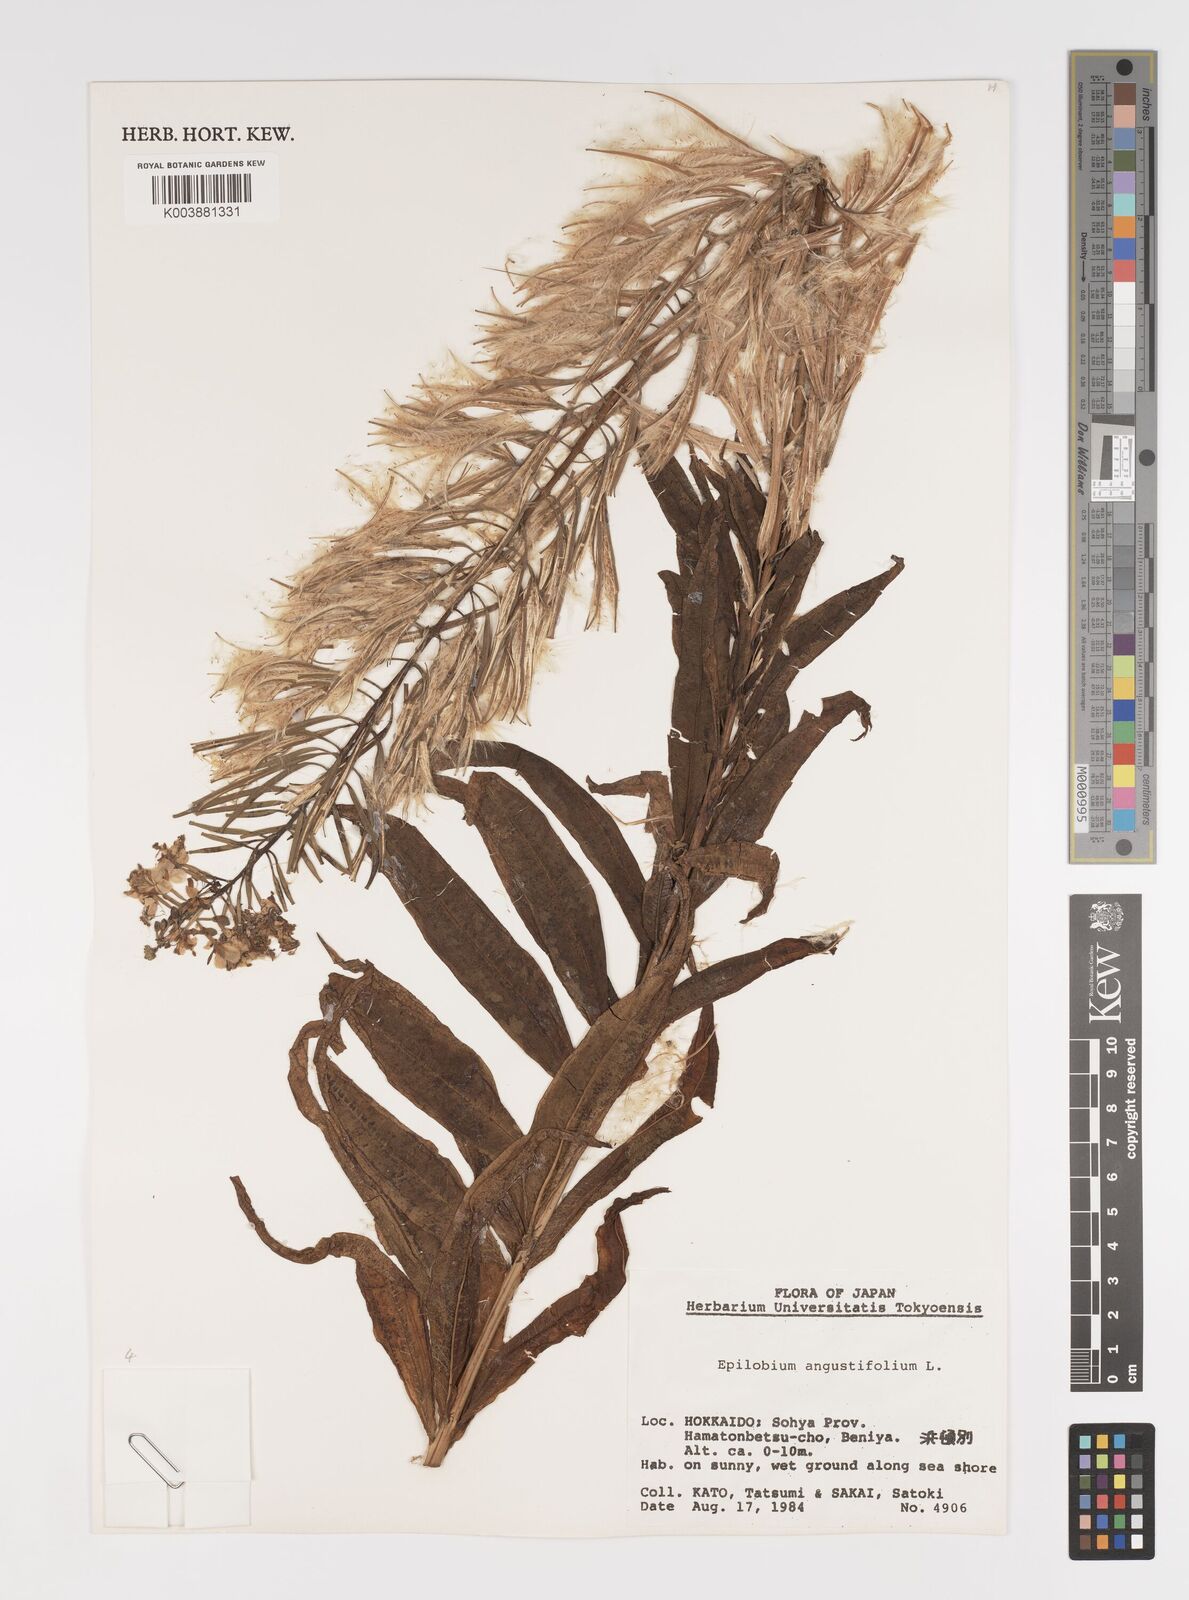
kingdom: Plantae
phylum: Tracheophyta
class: Magnoliopsida
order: Myrtales
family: Onagraceae
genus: Chamaenerion
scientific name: Chamaenerion angustifolium
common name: Fireweed
